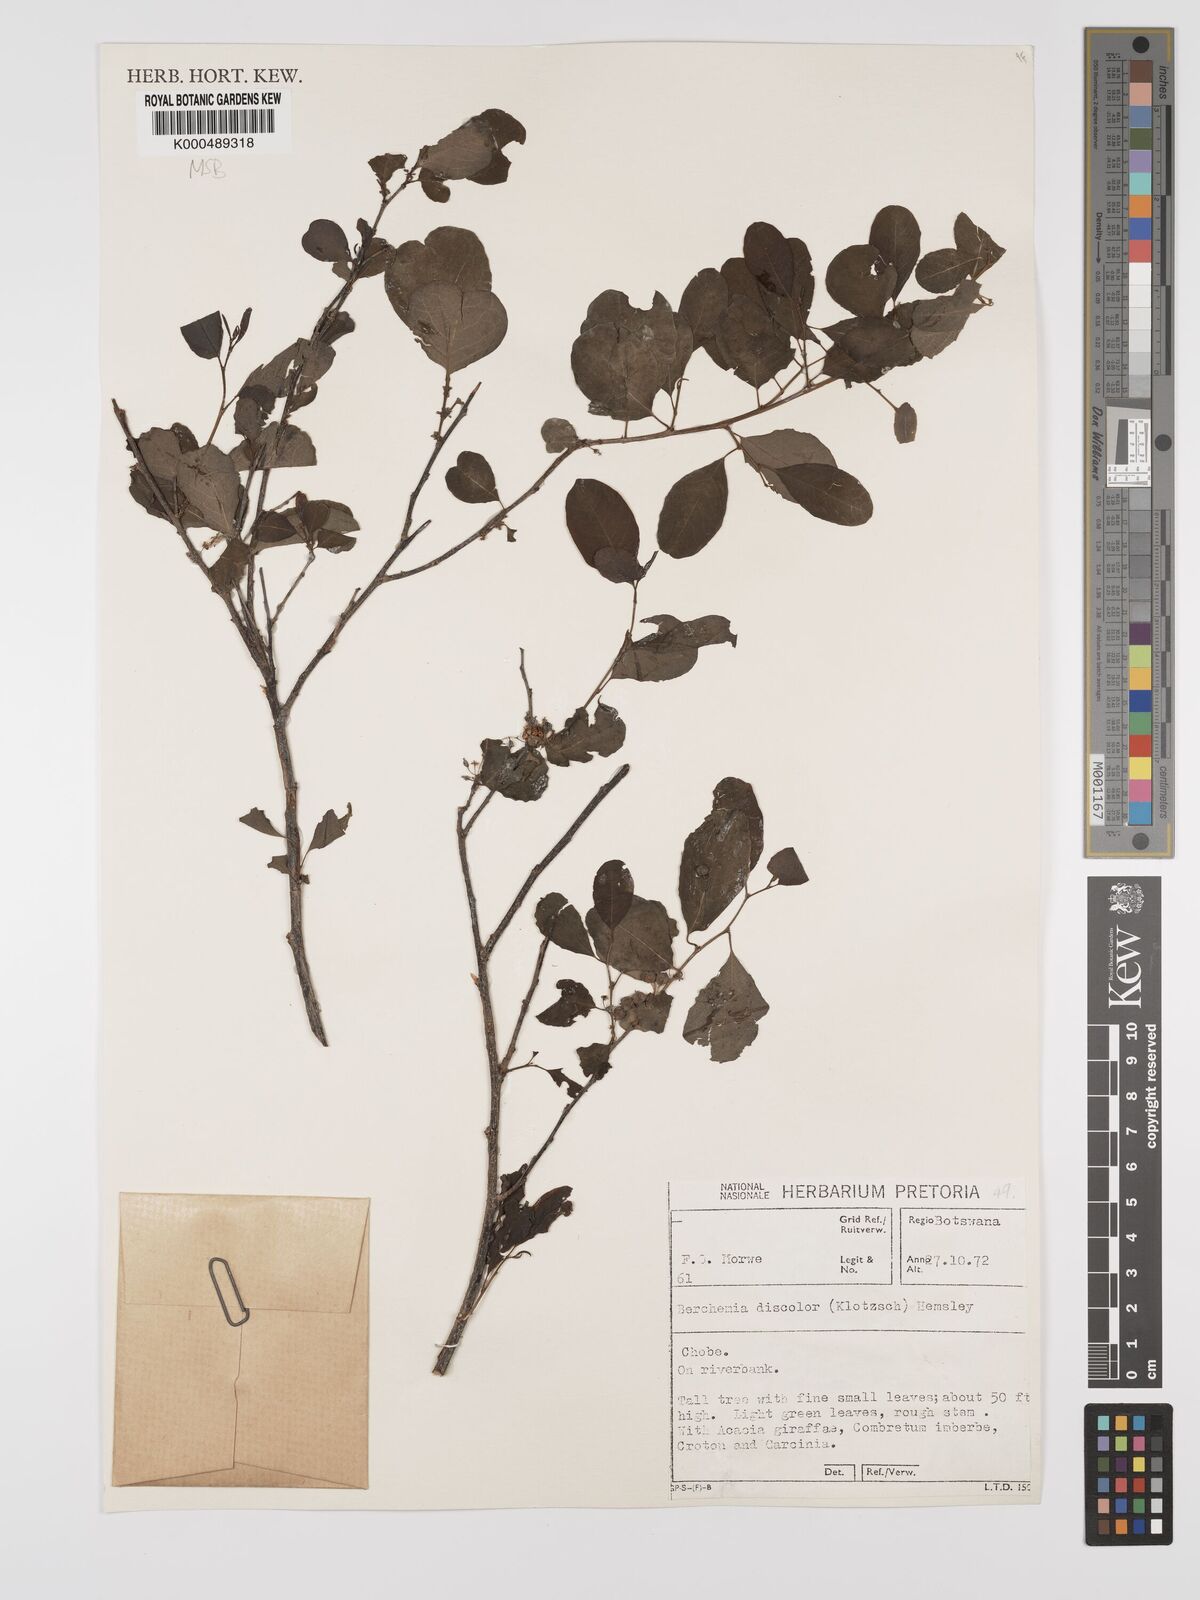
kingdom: Plantae
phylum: Tracheophyta
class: Magnoliopsida
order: Rosales
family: Rhamnaceae
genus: Phyllogeiton
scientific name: Phyllogeiton discolor
